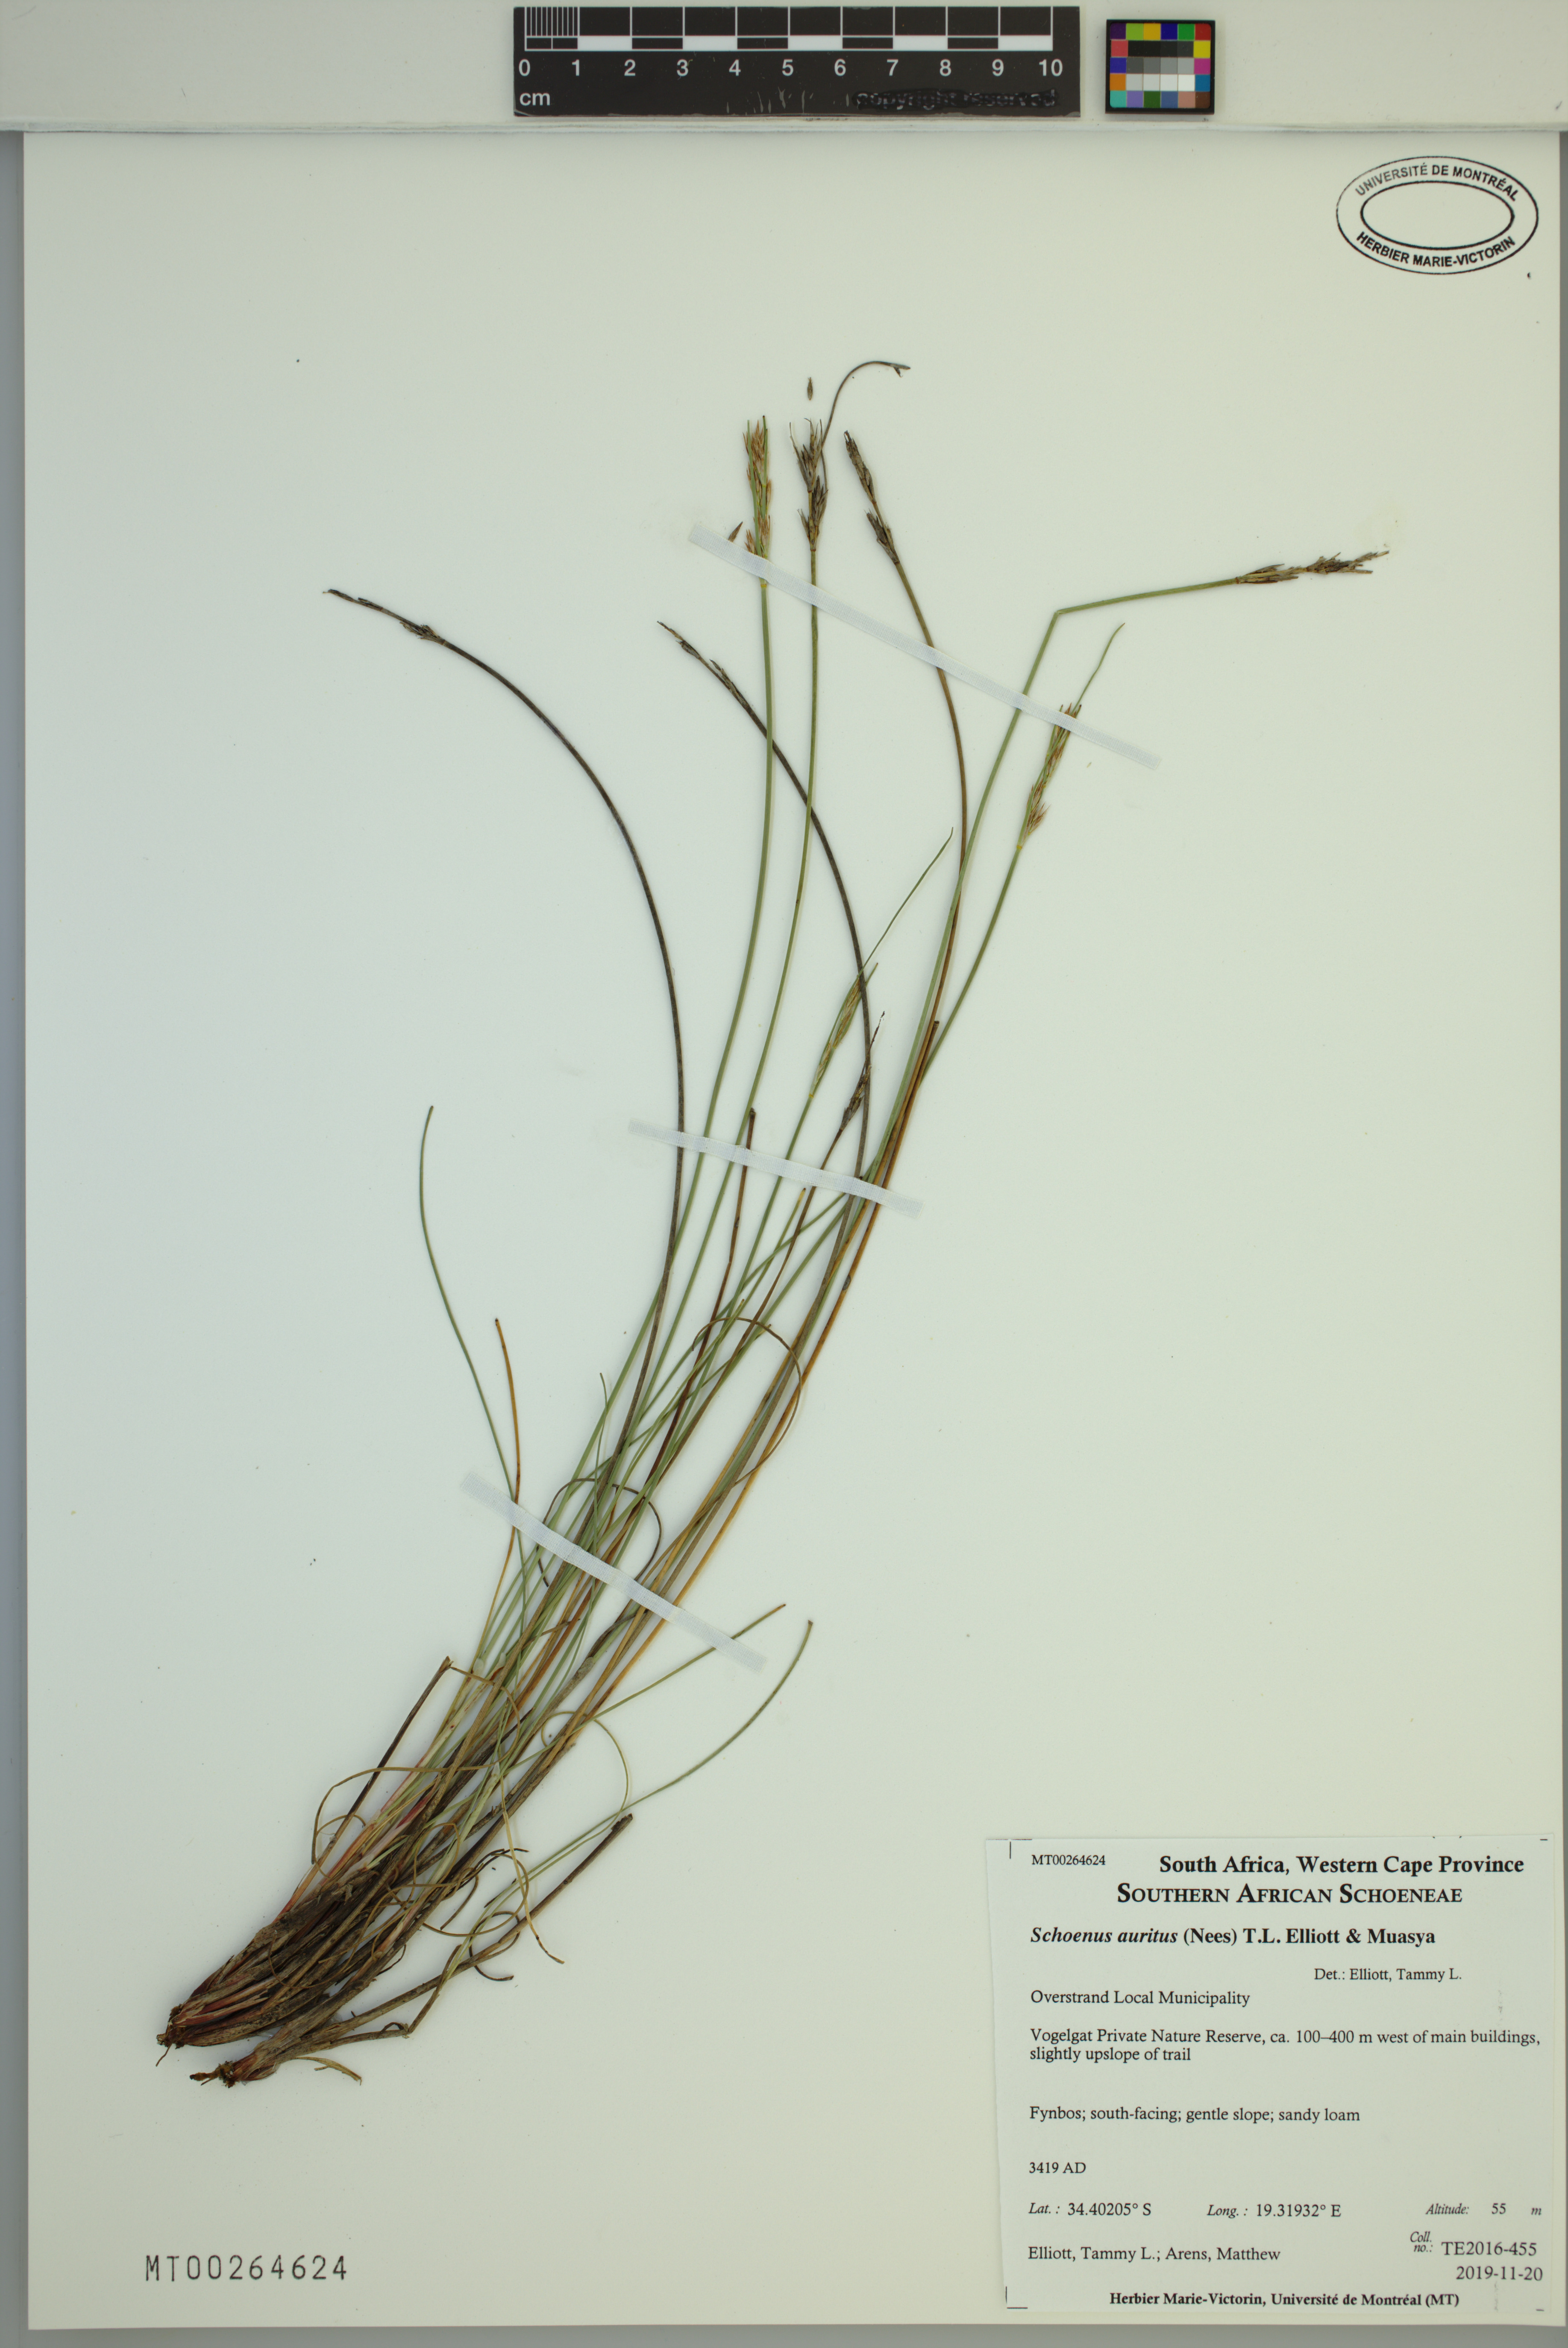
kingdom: Plantae
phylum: Tracheophyta
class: Liliopsida
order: Poales
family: Cyperaceae
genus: Schoenus
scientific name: Schoenus auritus
